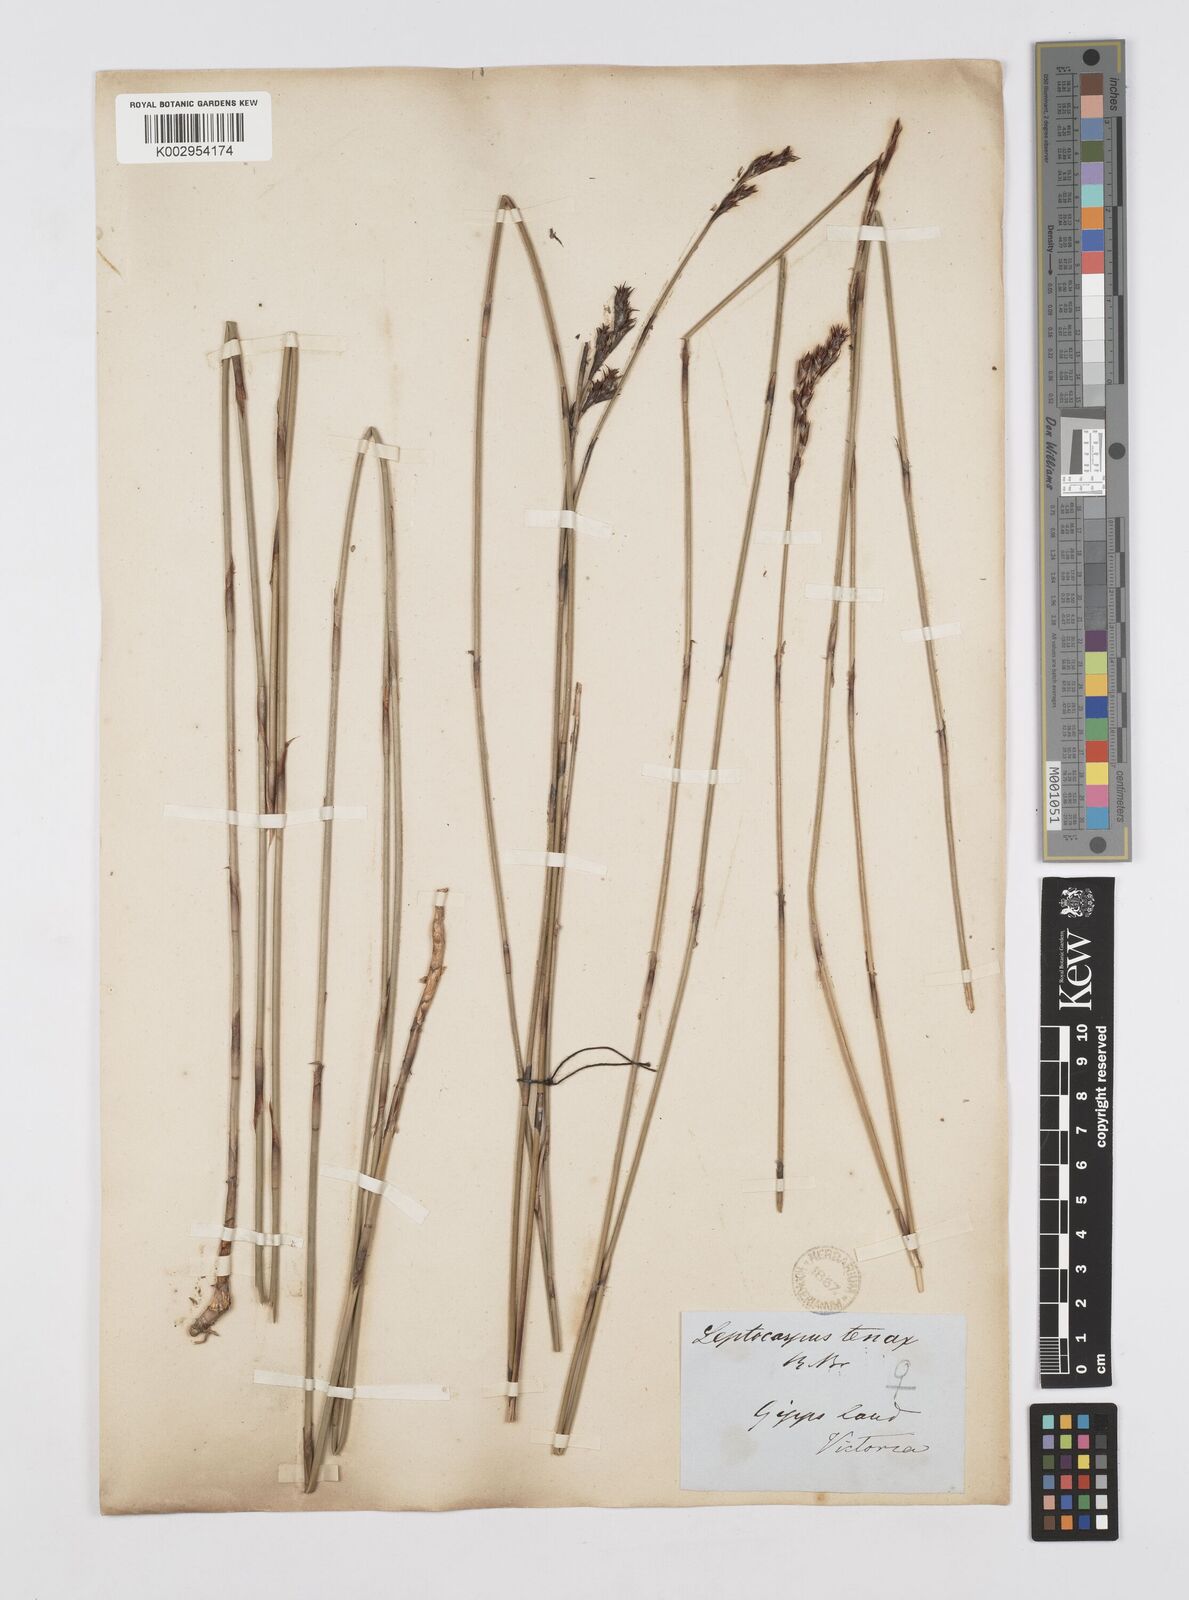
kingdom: Plantae
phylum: Tracheophyta
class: Liliopsida
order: Poales
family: Restionaceae
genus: Leptocarpus
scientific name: Leptocarpus tenax
